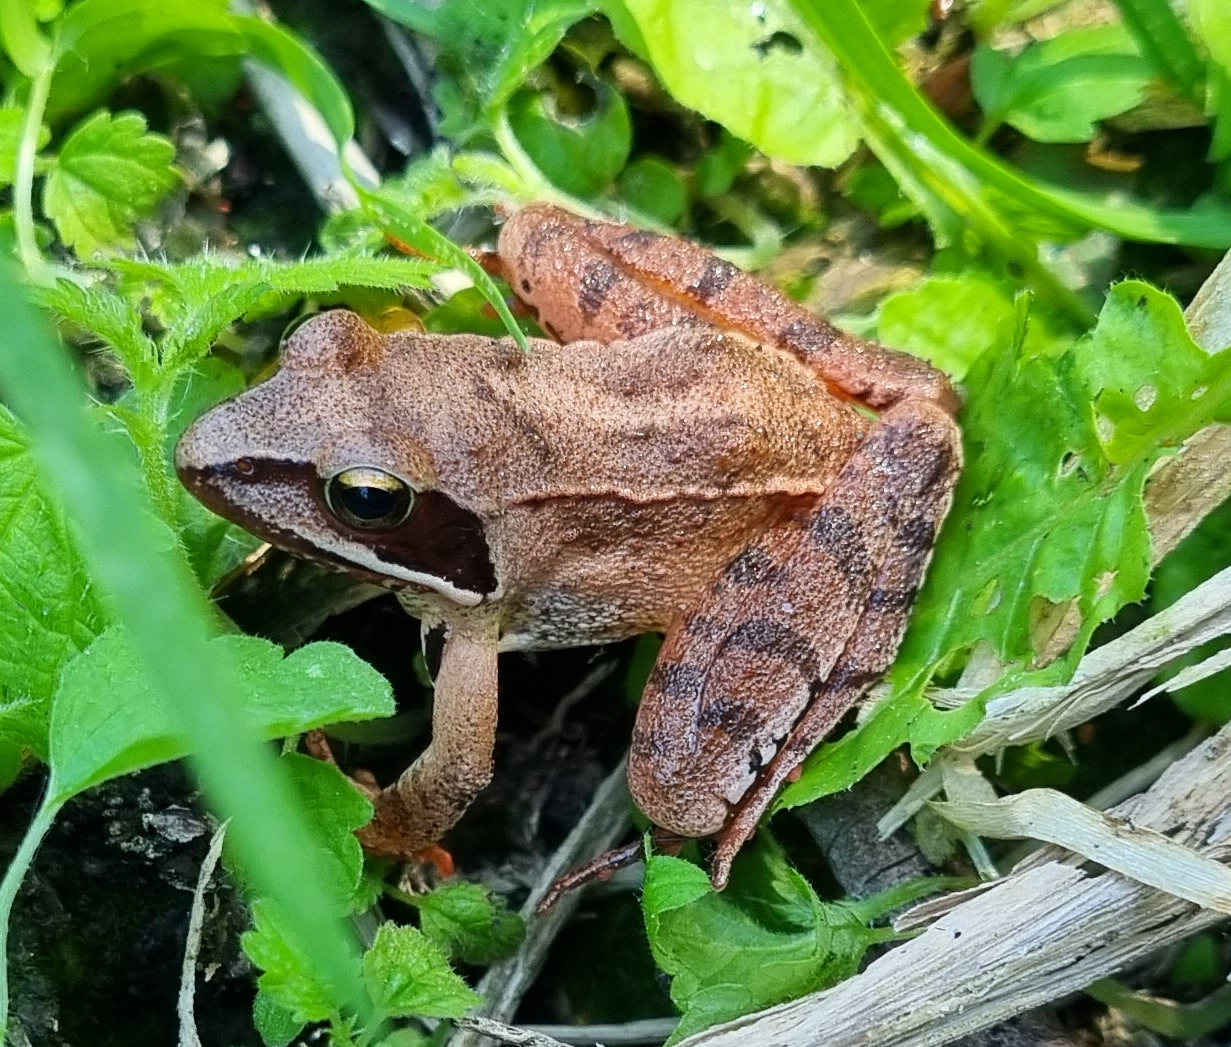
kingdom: Animalia
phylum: Chordata
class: Amphibia
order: Anura
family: Ranidae
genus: Rana
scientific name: Rana dalmatina
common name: Springfrø
